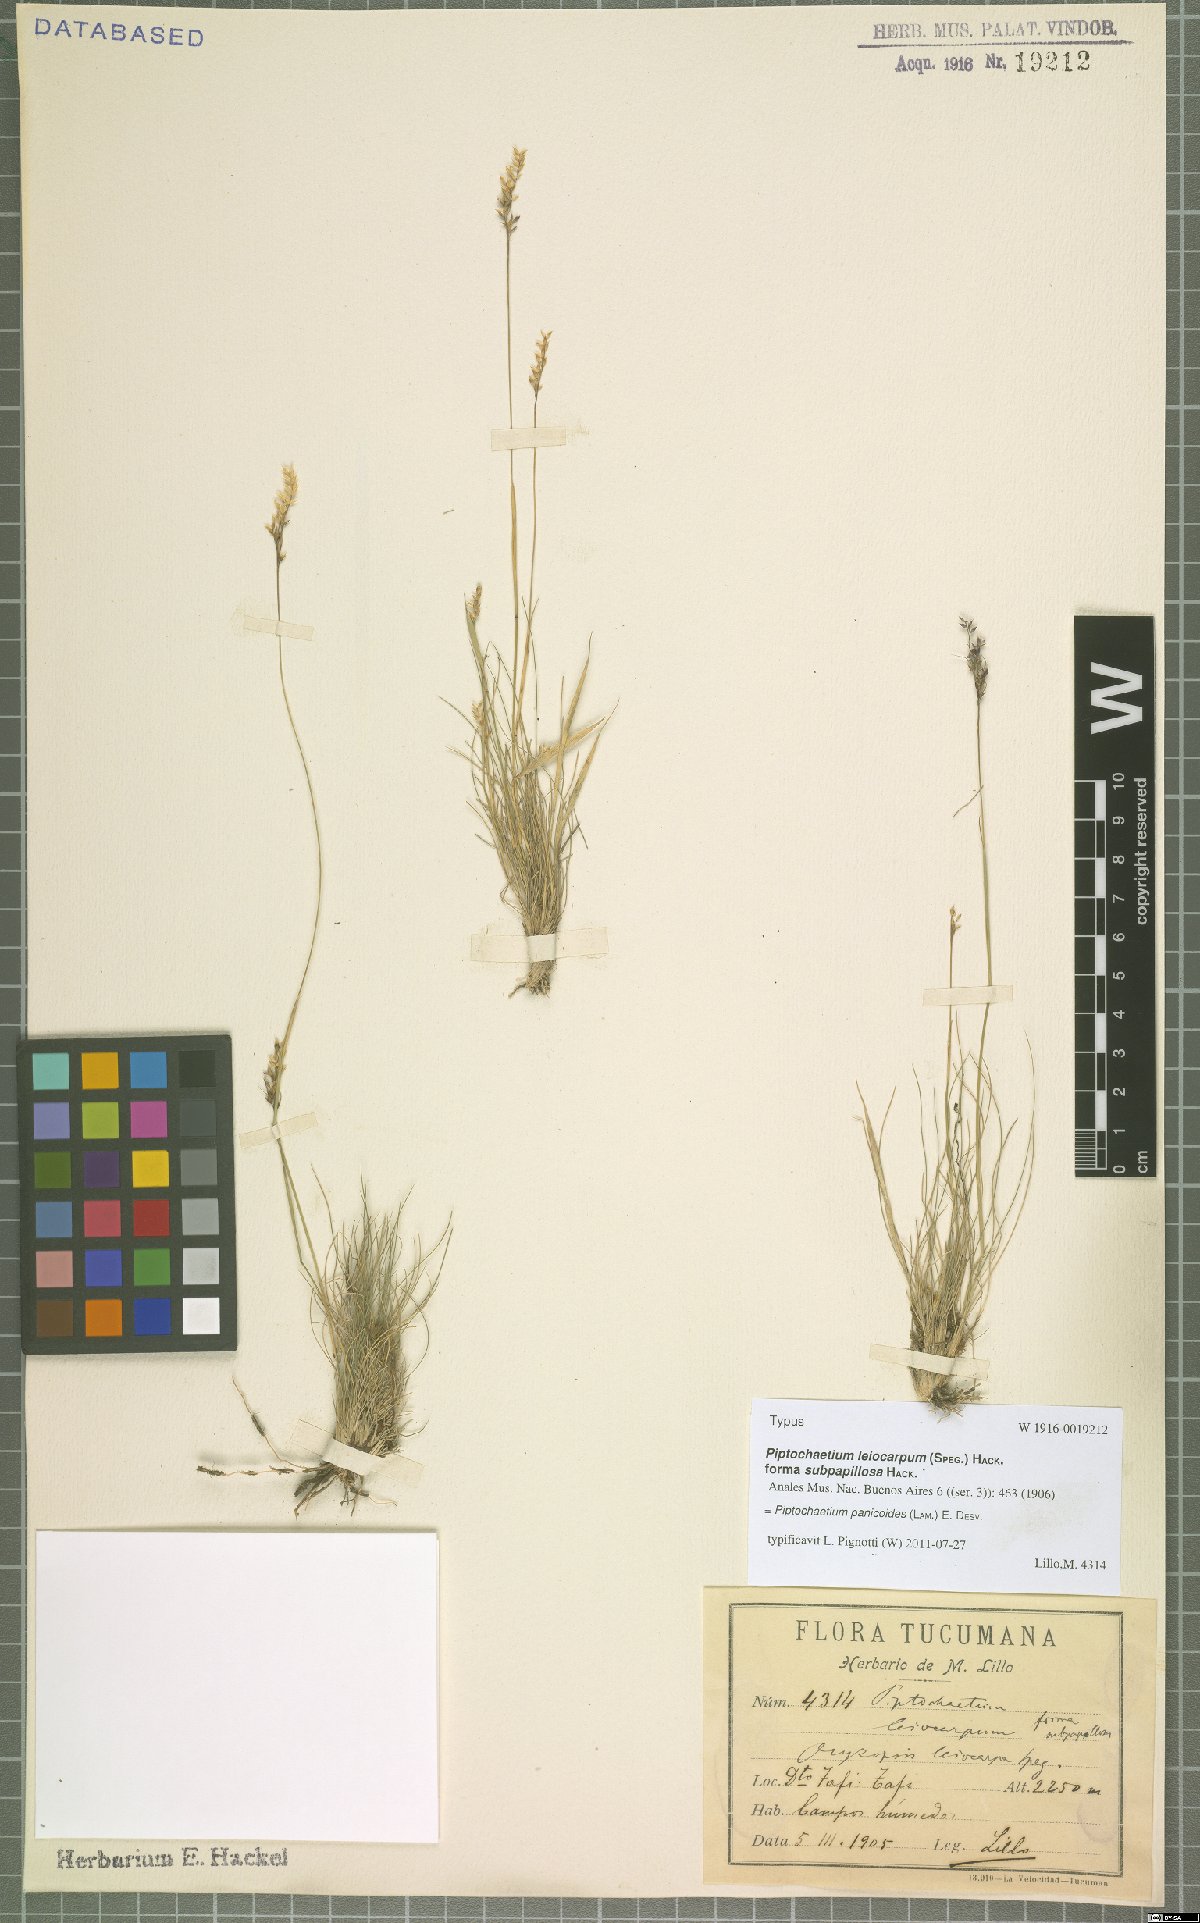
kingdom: Plantae
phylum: Tracheophyta
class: Liliopsida
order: Poales
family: Poaceae
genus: Piptochaetium
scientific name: Piptochaetium panicoides
